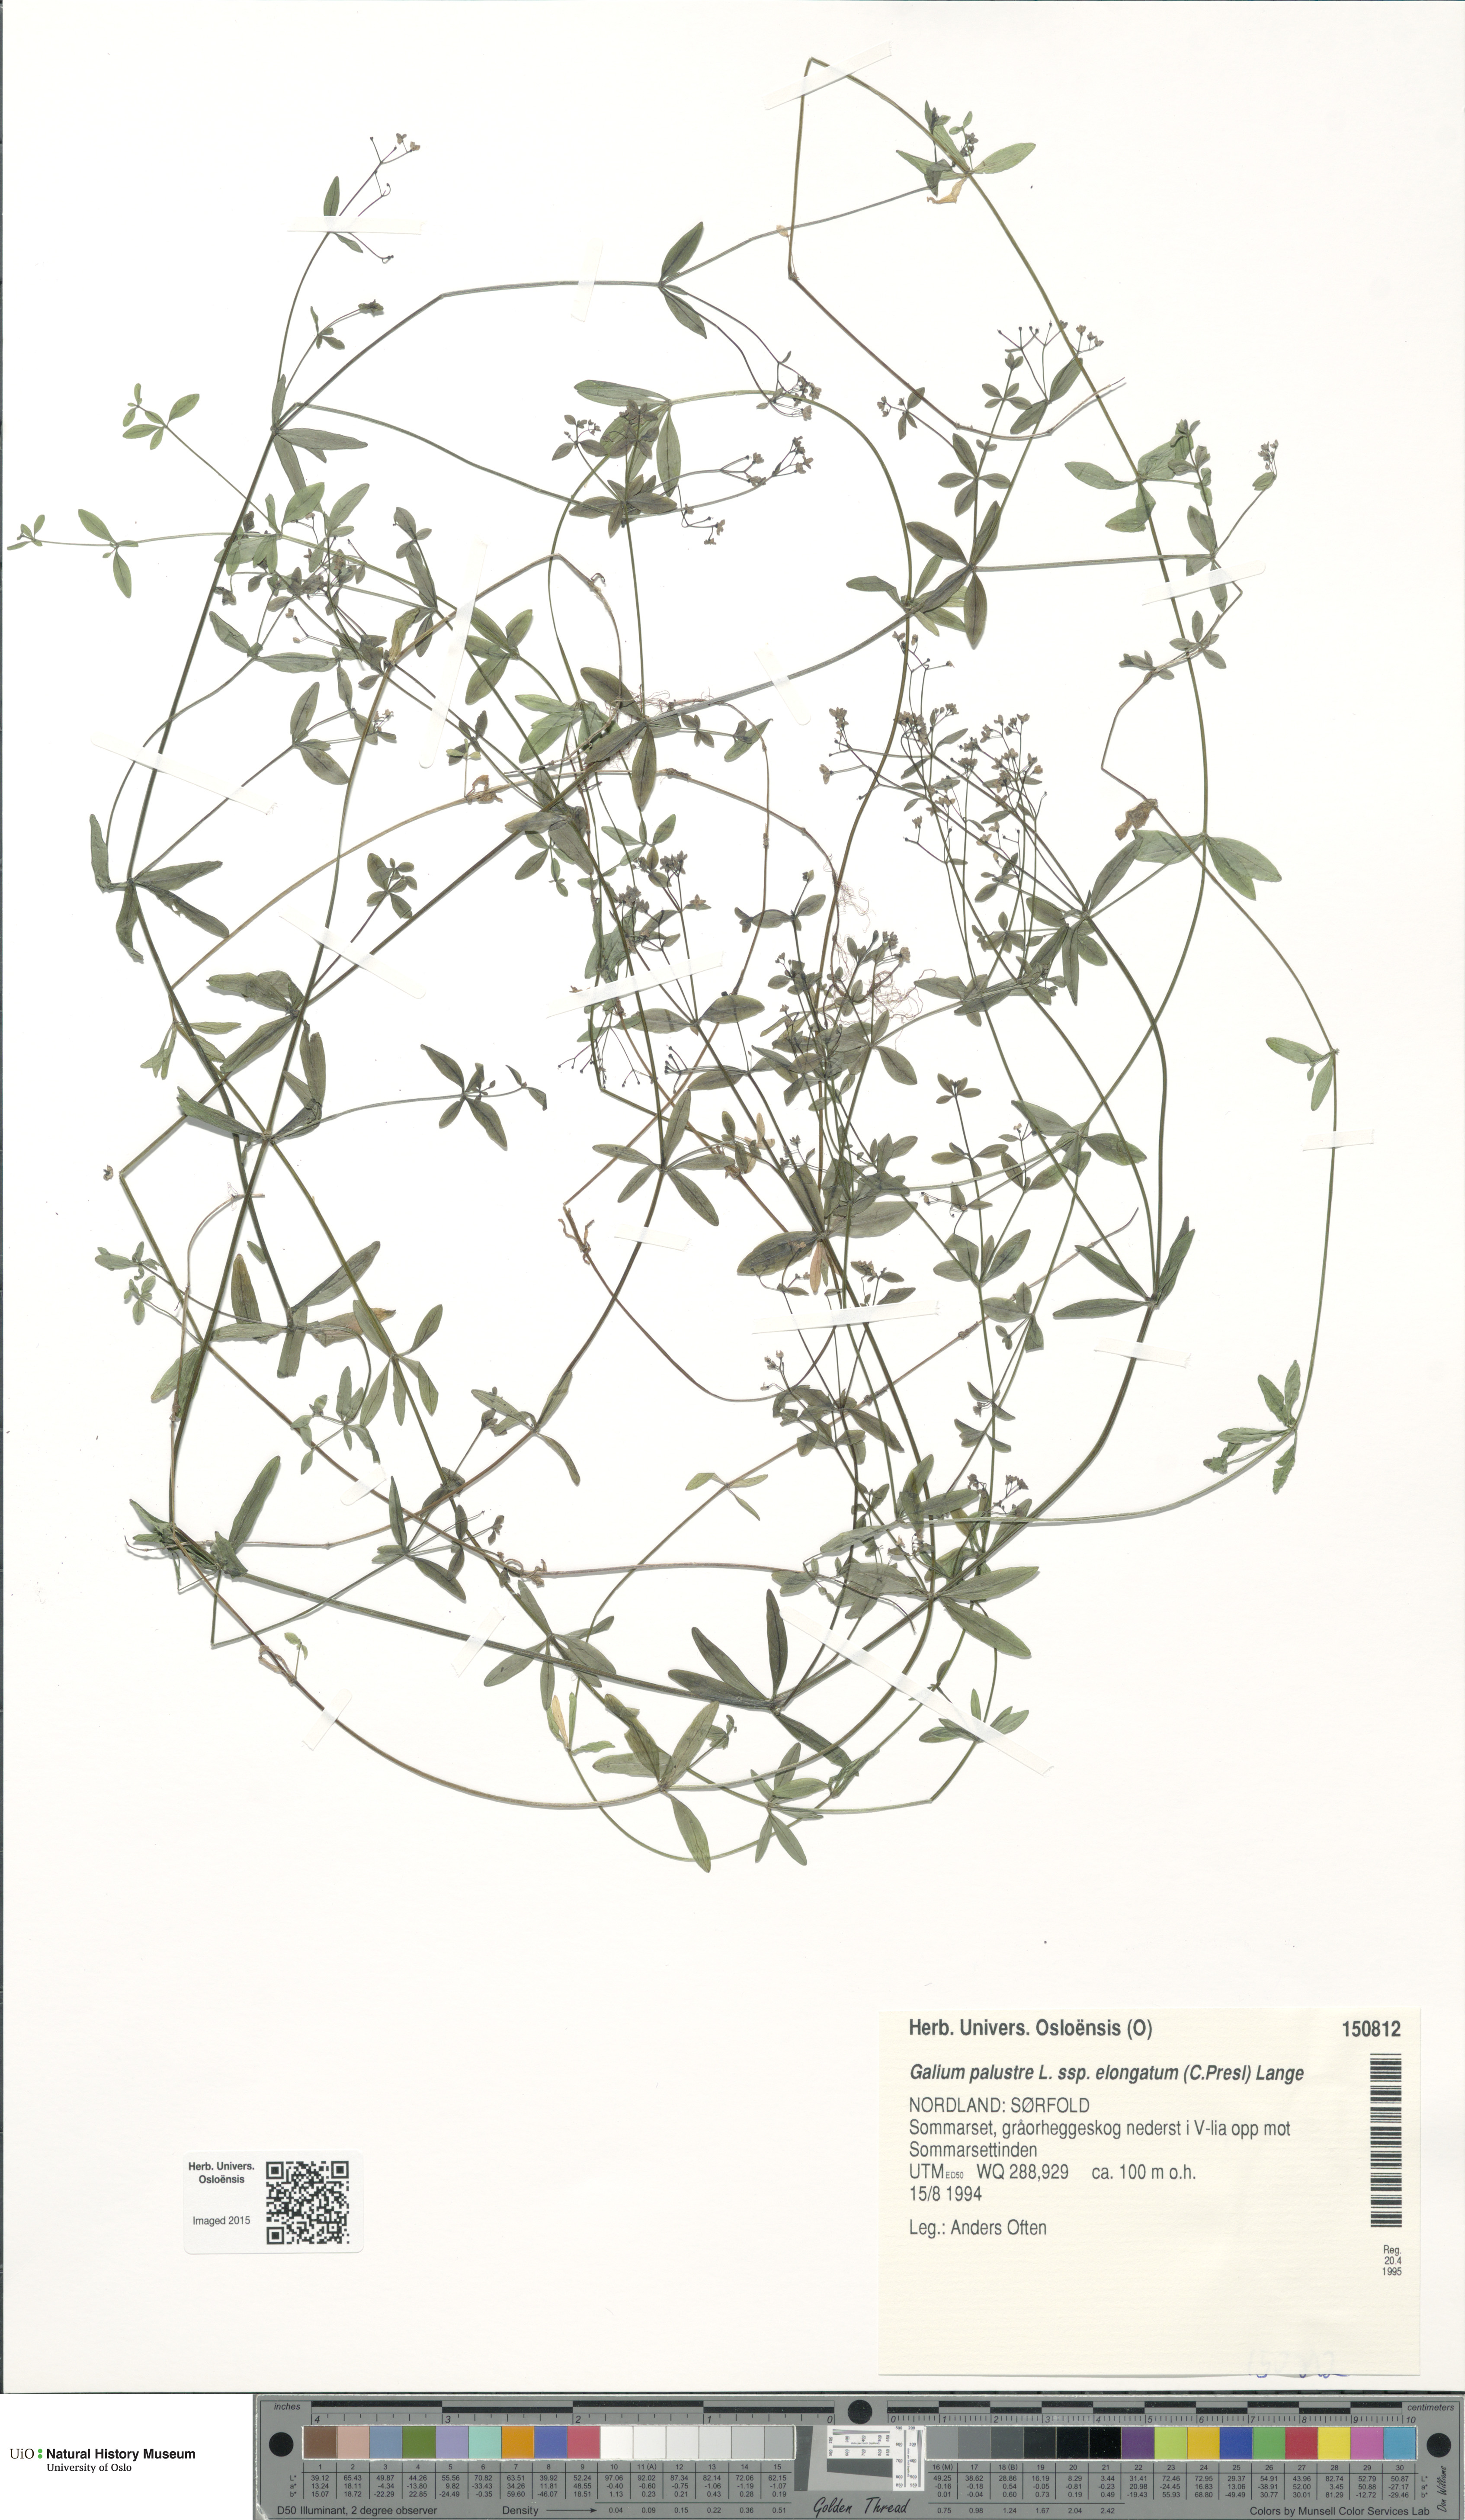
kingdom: Plantae
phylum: Tracheophyta
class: Magnoliopsida
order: Gentianales
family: Rubiaceae
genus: Galium
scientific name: Galium elongatum
